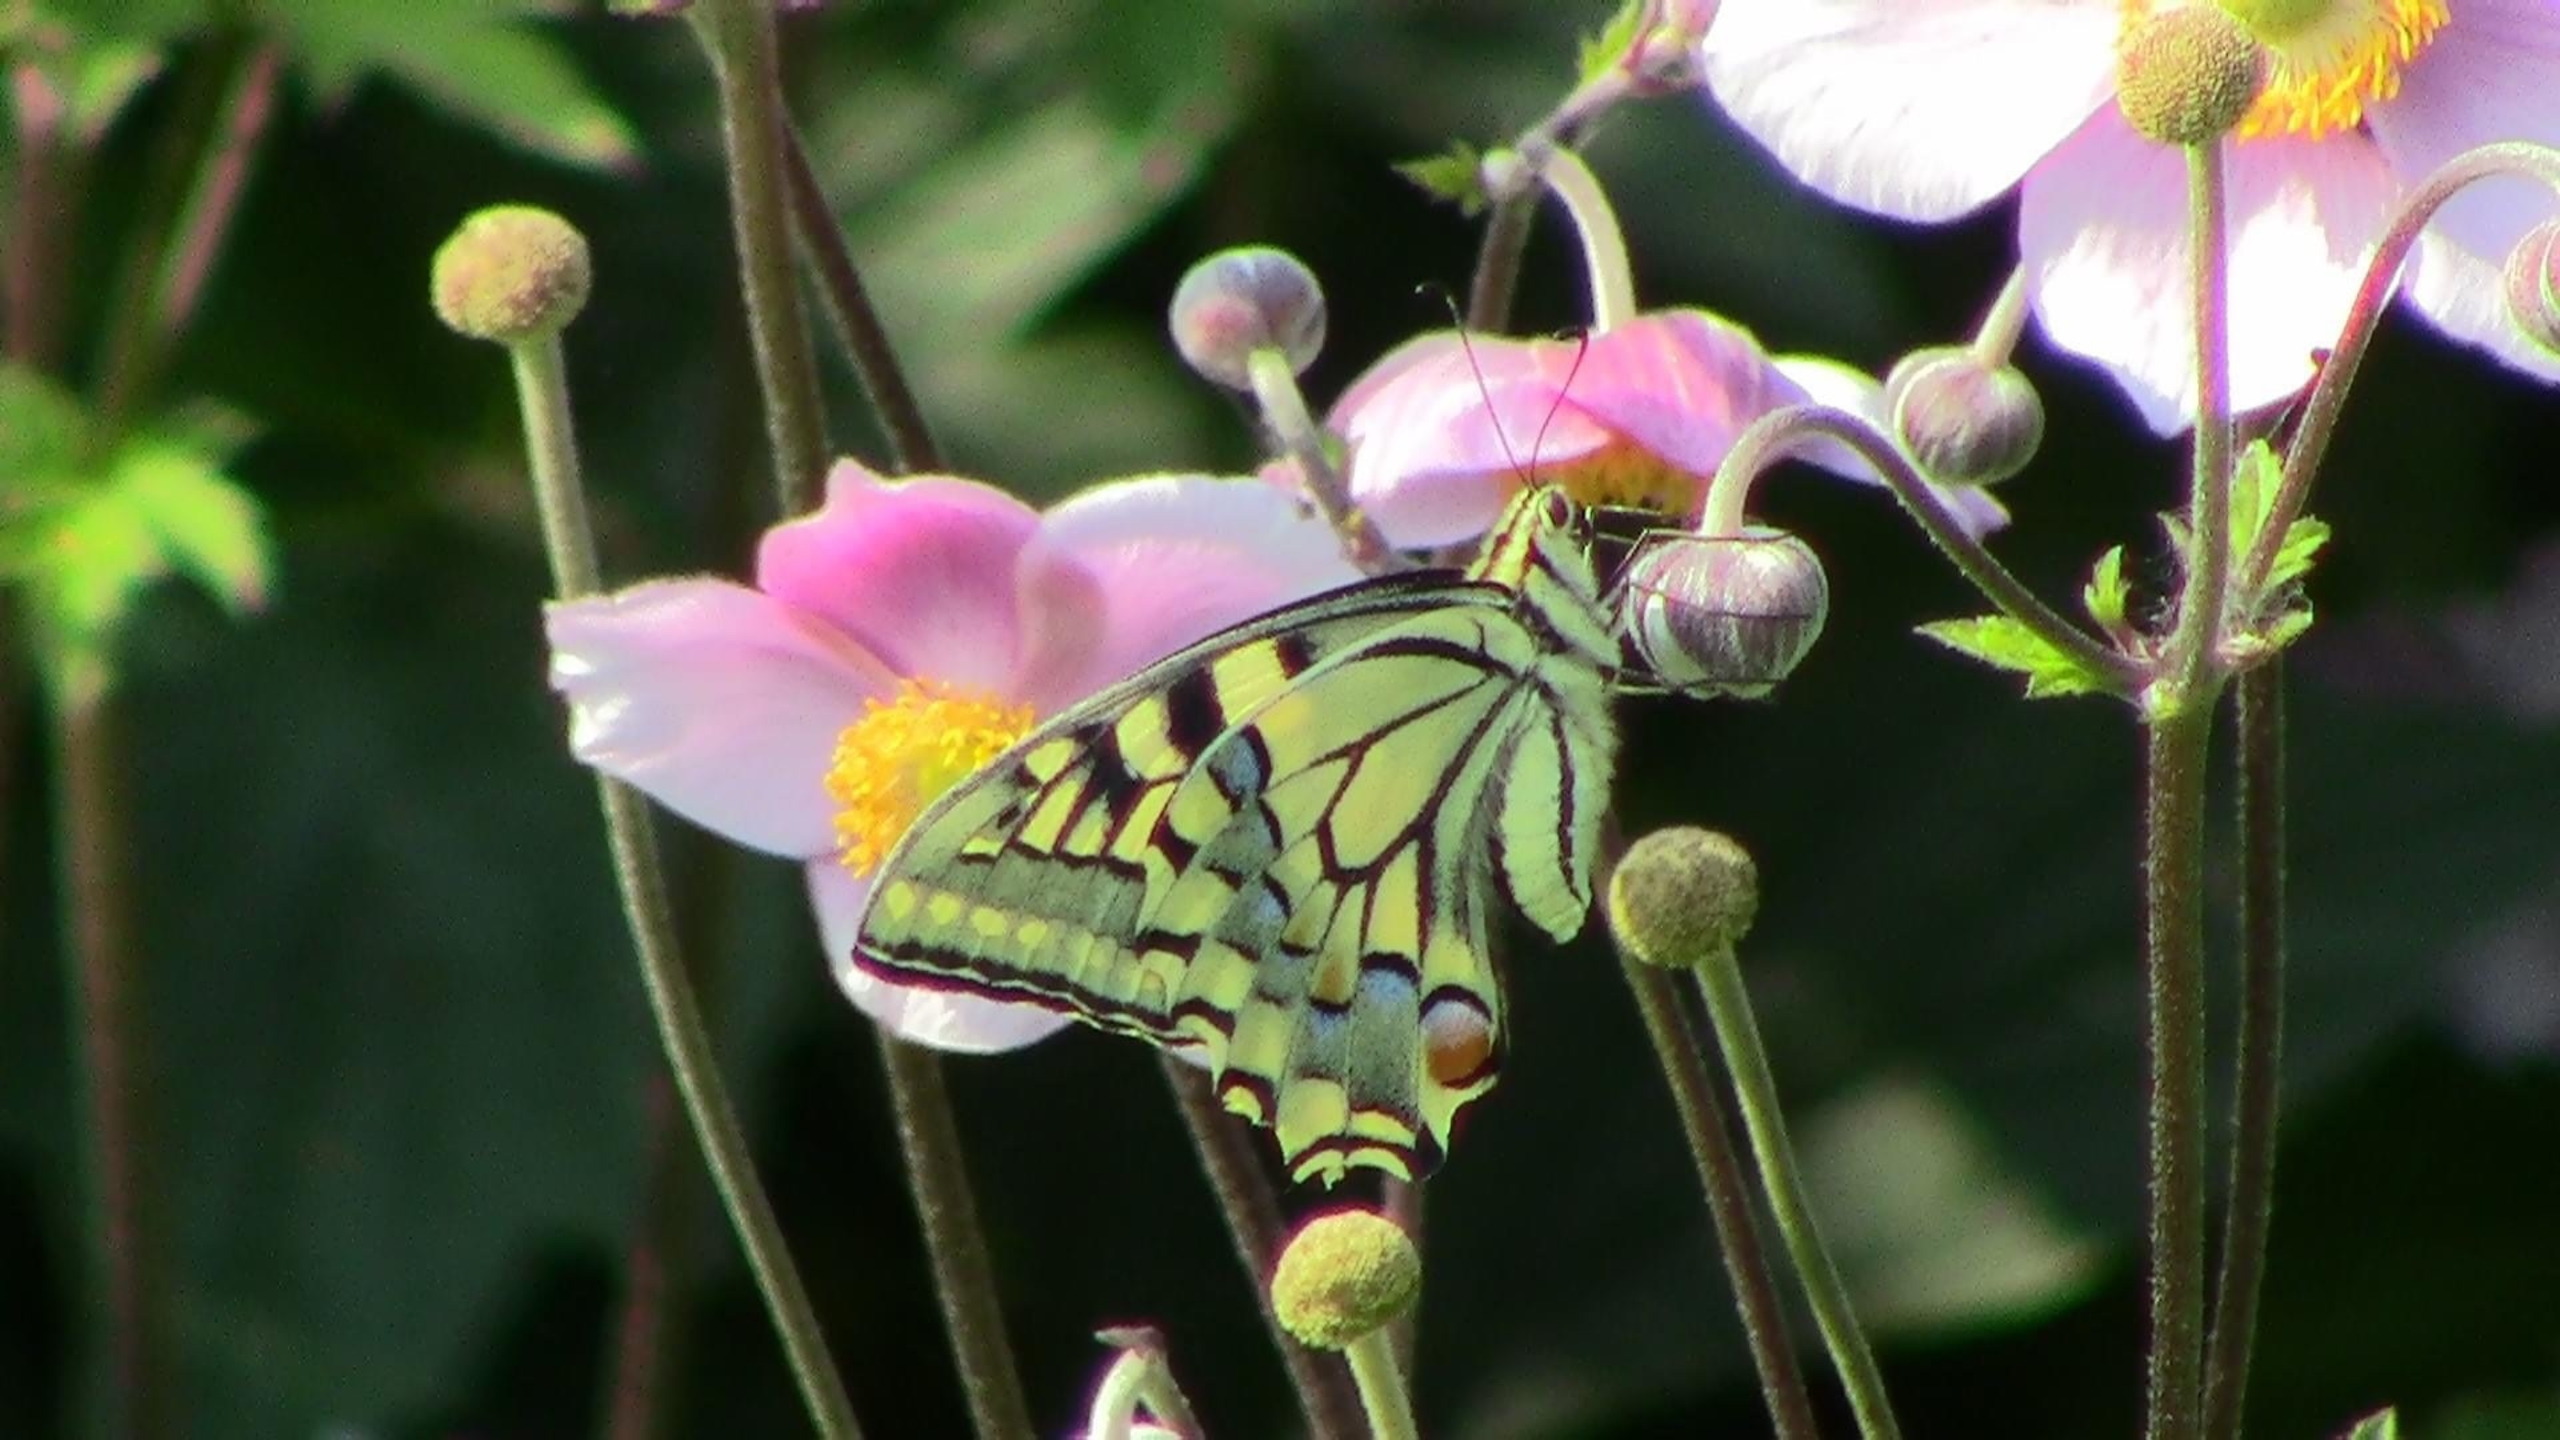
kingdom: Animalia
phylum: Arthropoda
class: Insecta
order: Lepidoptera
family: Papilionidae
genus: Papilio
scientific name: Papilio machaon
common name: Svalehale
